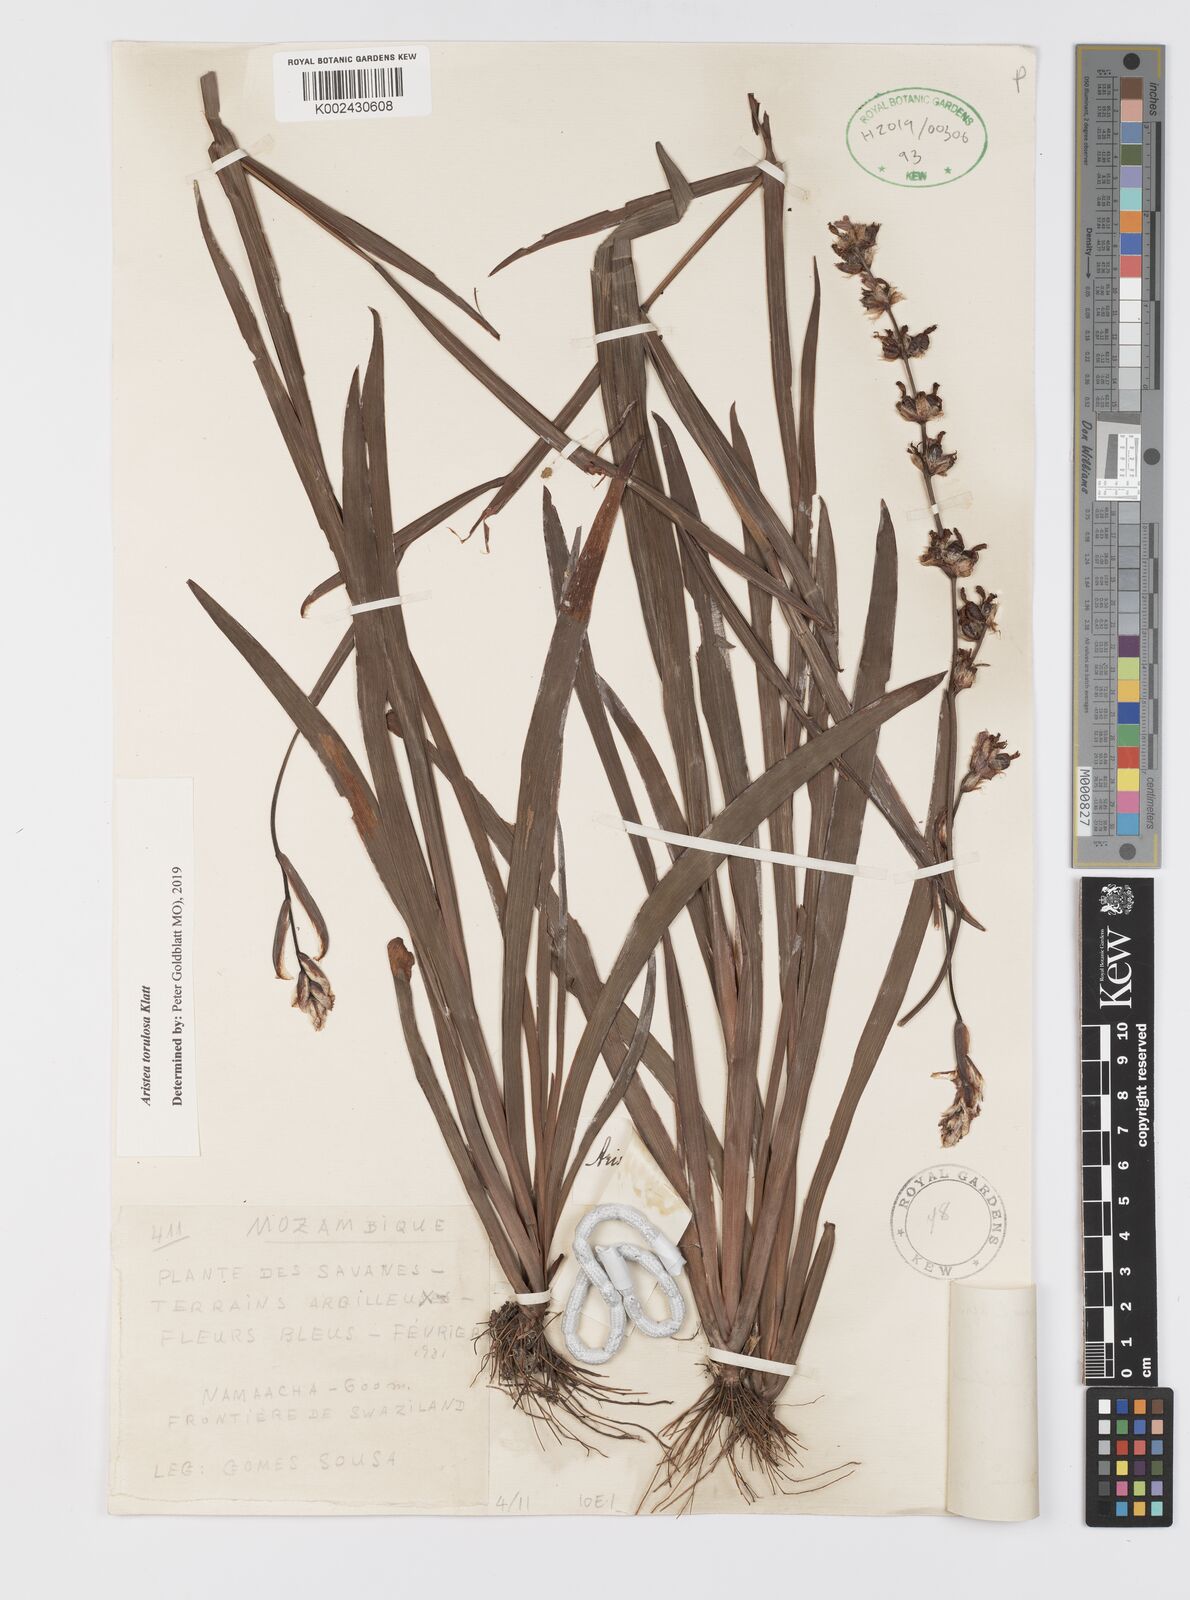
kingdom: Plantae
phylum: Tracheophyta
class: Liliopsida
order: Asparagales
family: Iridaceae
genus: Aristea
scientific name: Aristea torulosa
